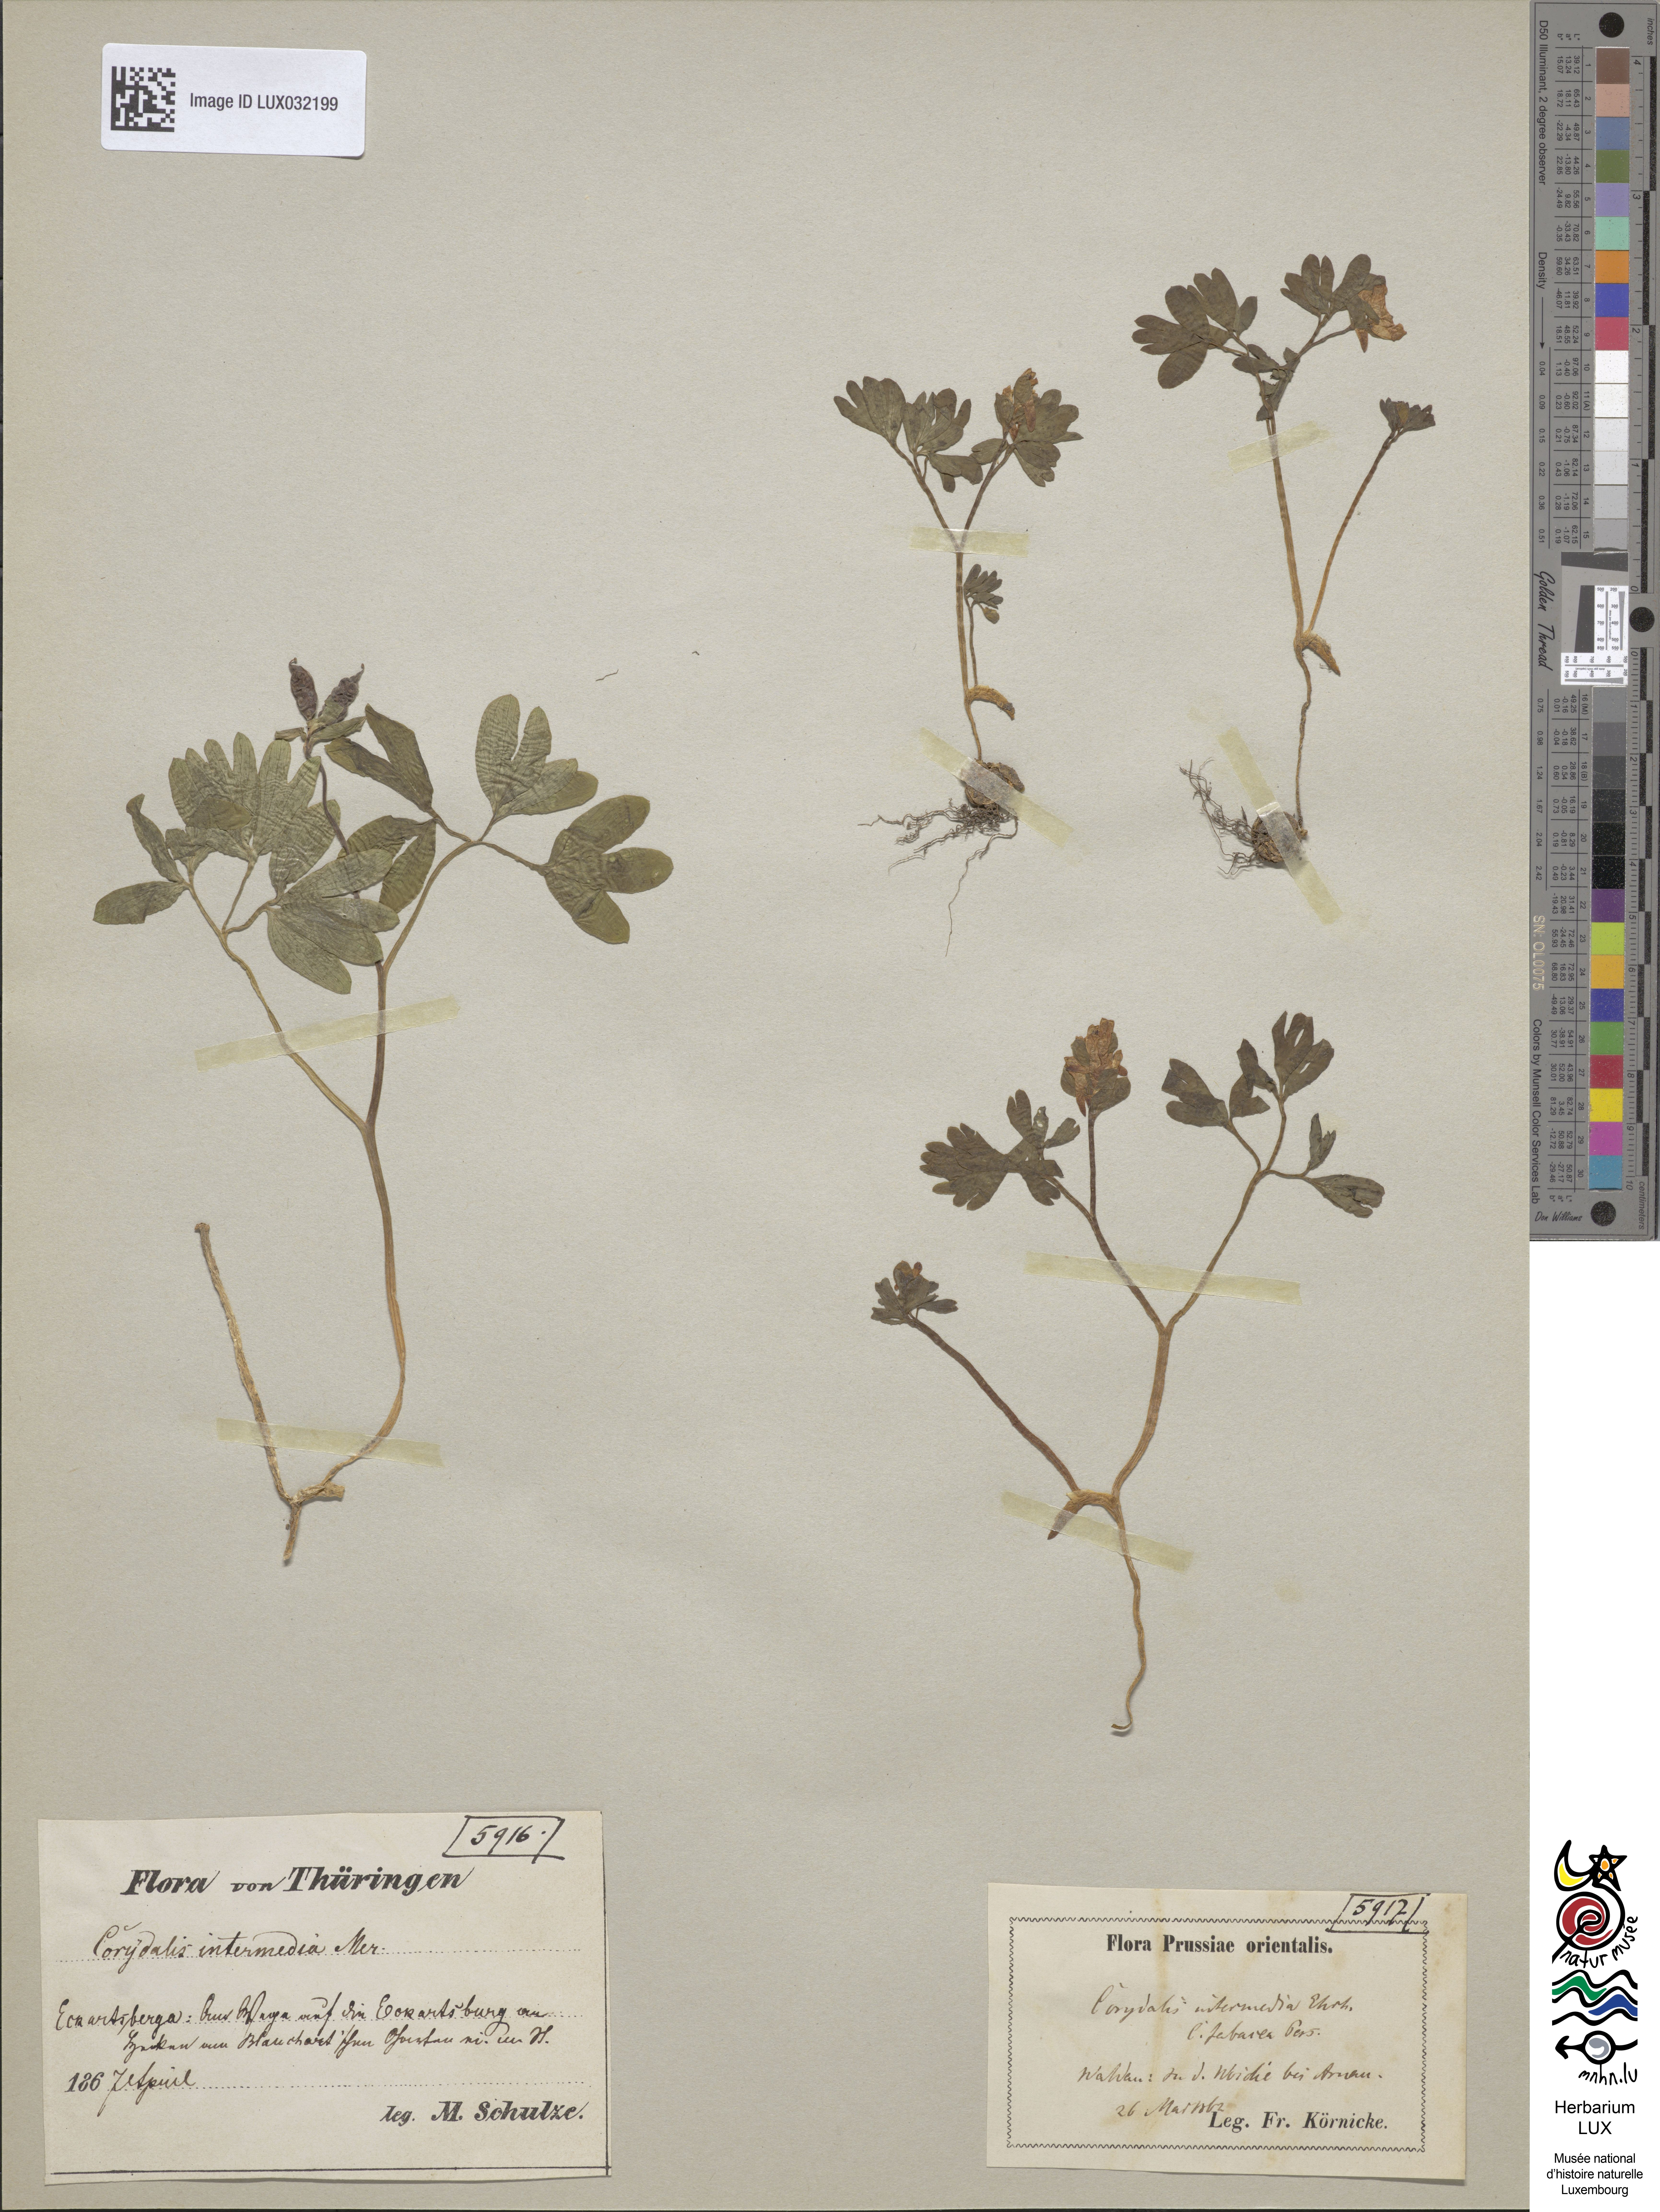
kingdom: Plantae
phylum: Tracheophyta
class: Magnoliopsida
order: Ranunculales
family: Papaveraceae
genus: Corydalis
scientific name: Corydalis intermedia
